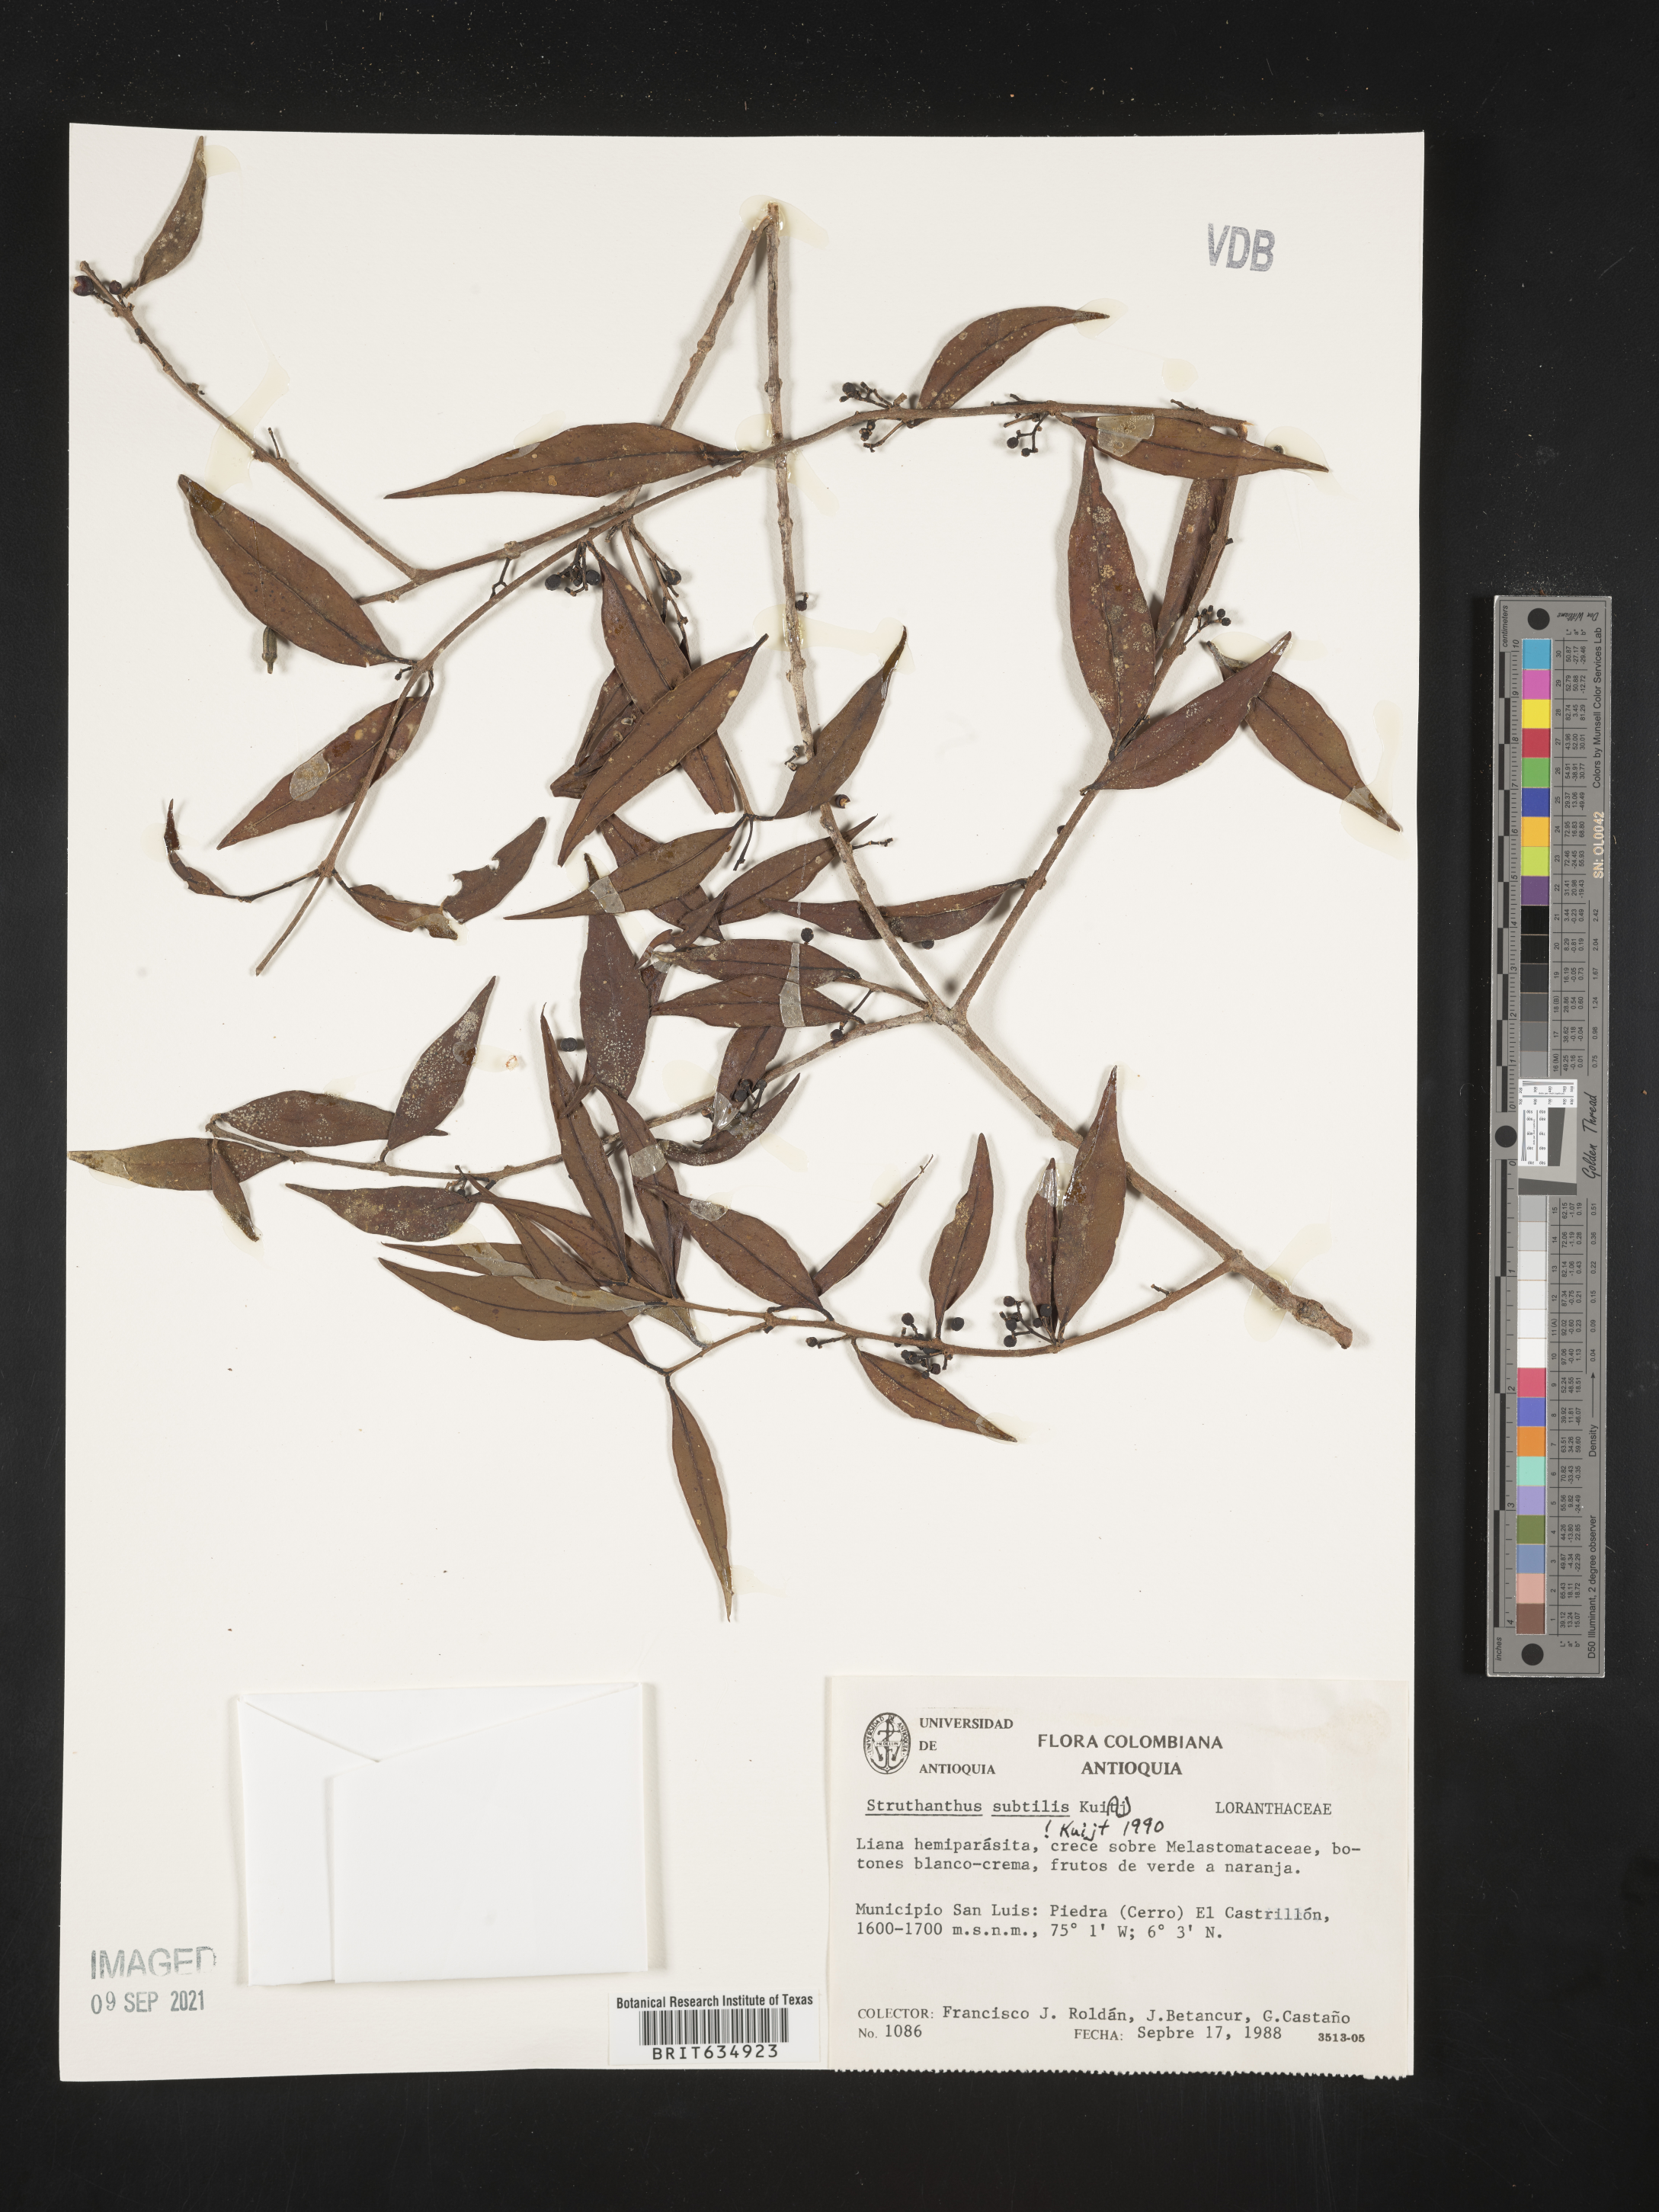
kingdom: Plantae
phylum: Tracheophyta
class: Magnoliopsida
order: Santalales
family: Loranthaceae
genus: Struthanthus
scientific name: Struthanthus
